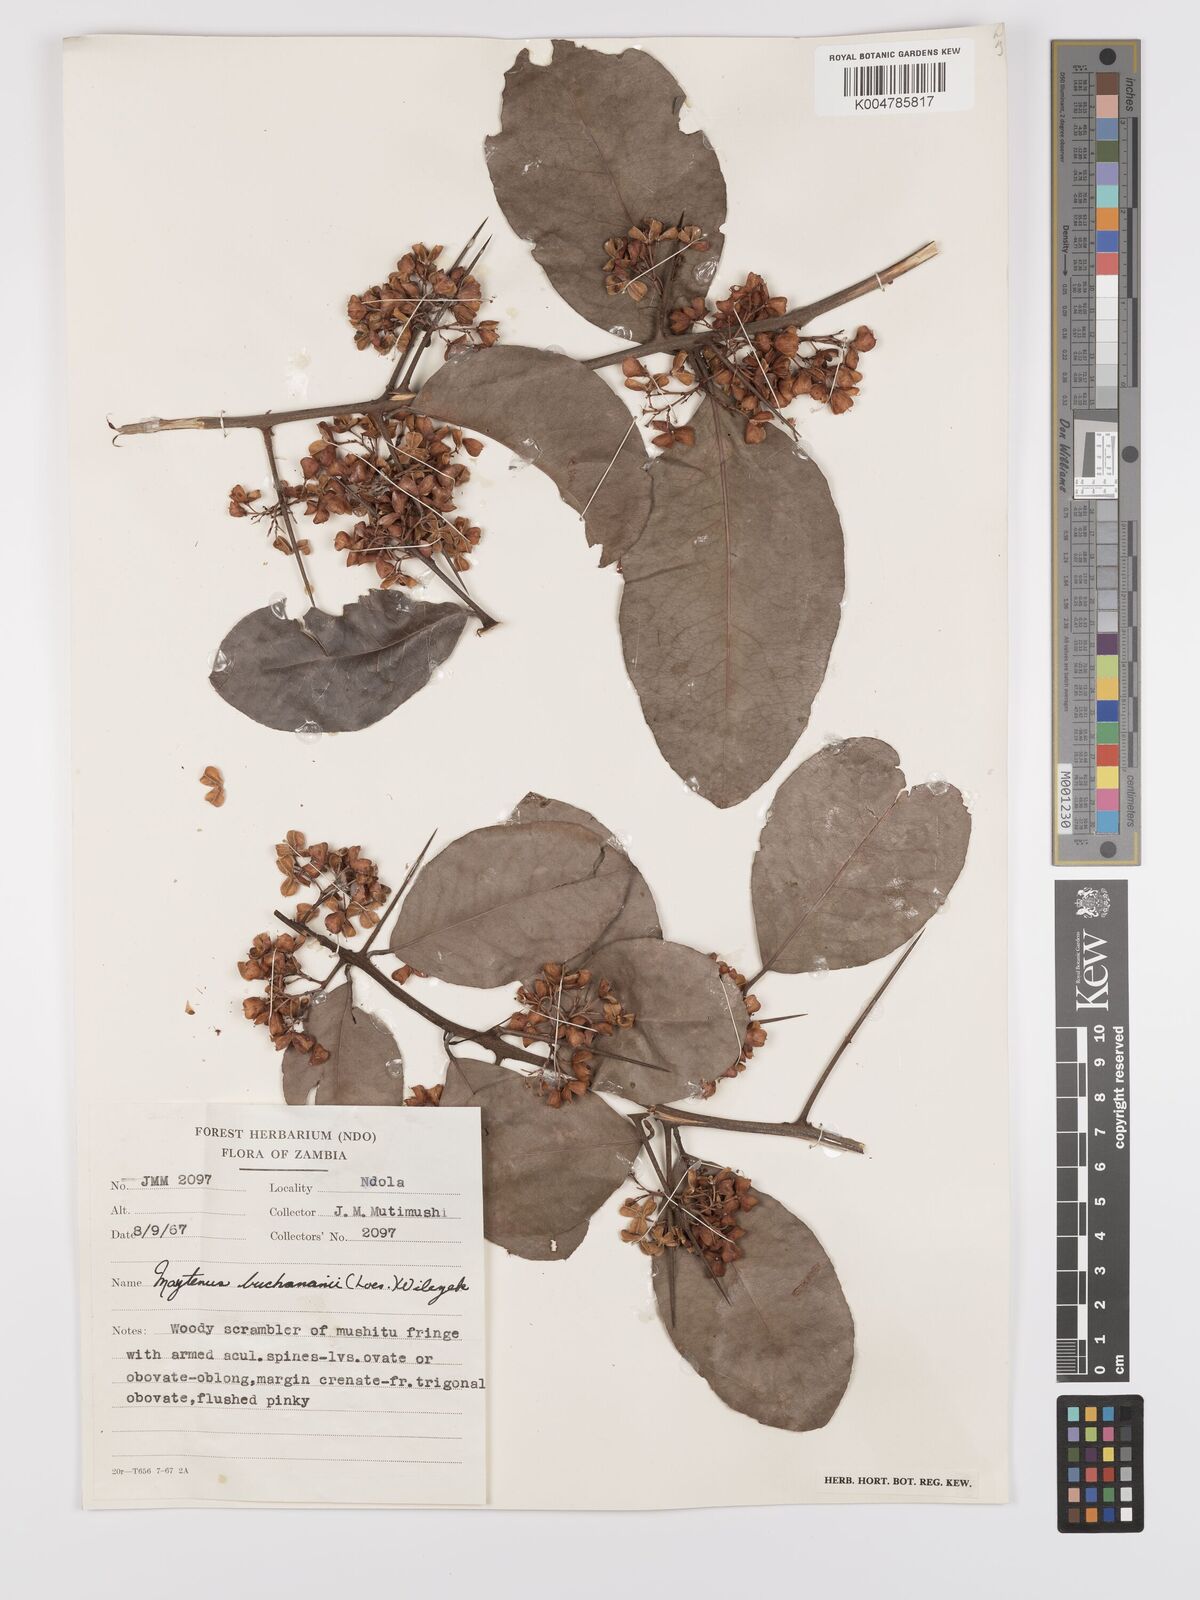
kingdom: Plantae
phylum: Tracheophyta
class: Magnoliopsida
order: Celastrales
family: Celastraceae
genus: Gymnosporia
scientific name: Gymnosporia buchananii
